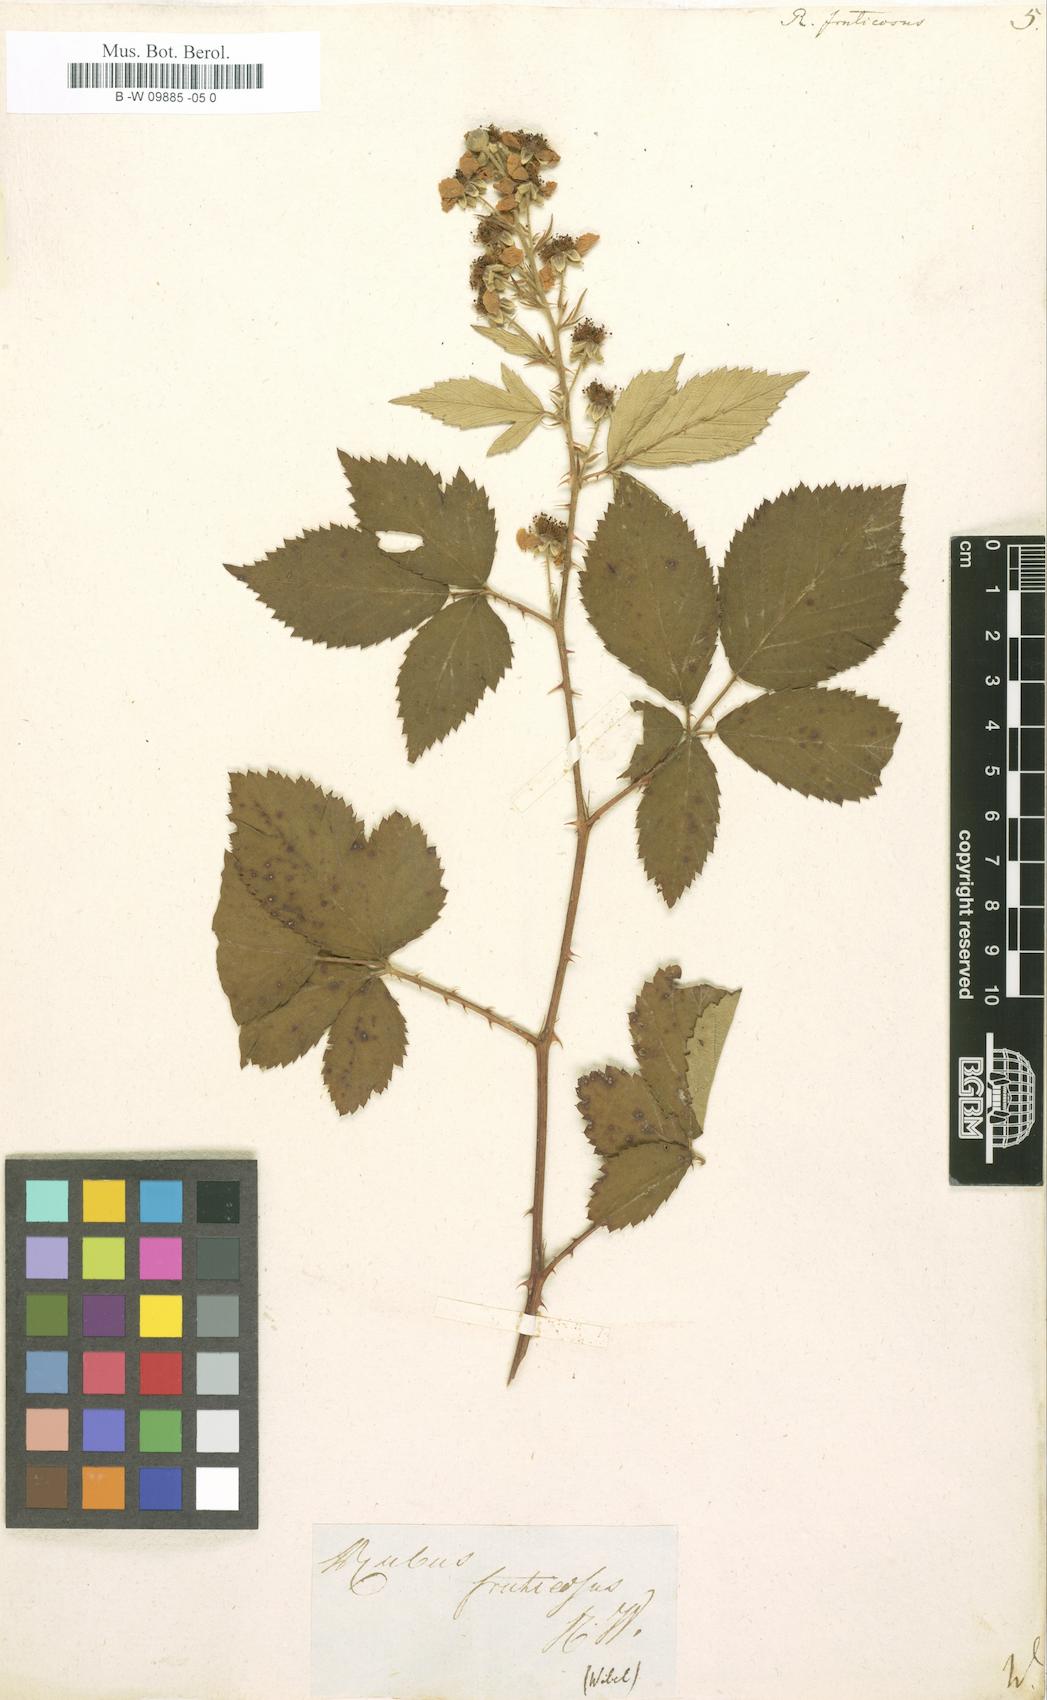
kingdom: Plantae
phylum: Tracheophyta
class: Magnoliopsida
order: Rosales
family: Rosaceae
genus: Rubus
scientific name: Rubus fruticosus
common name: Blackberry, bramble
